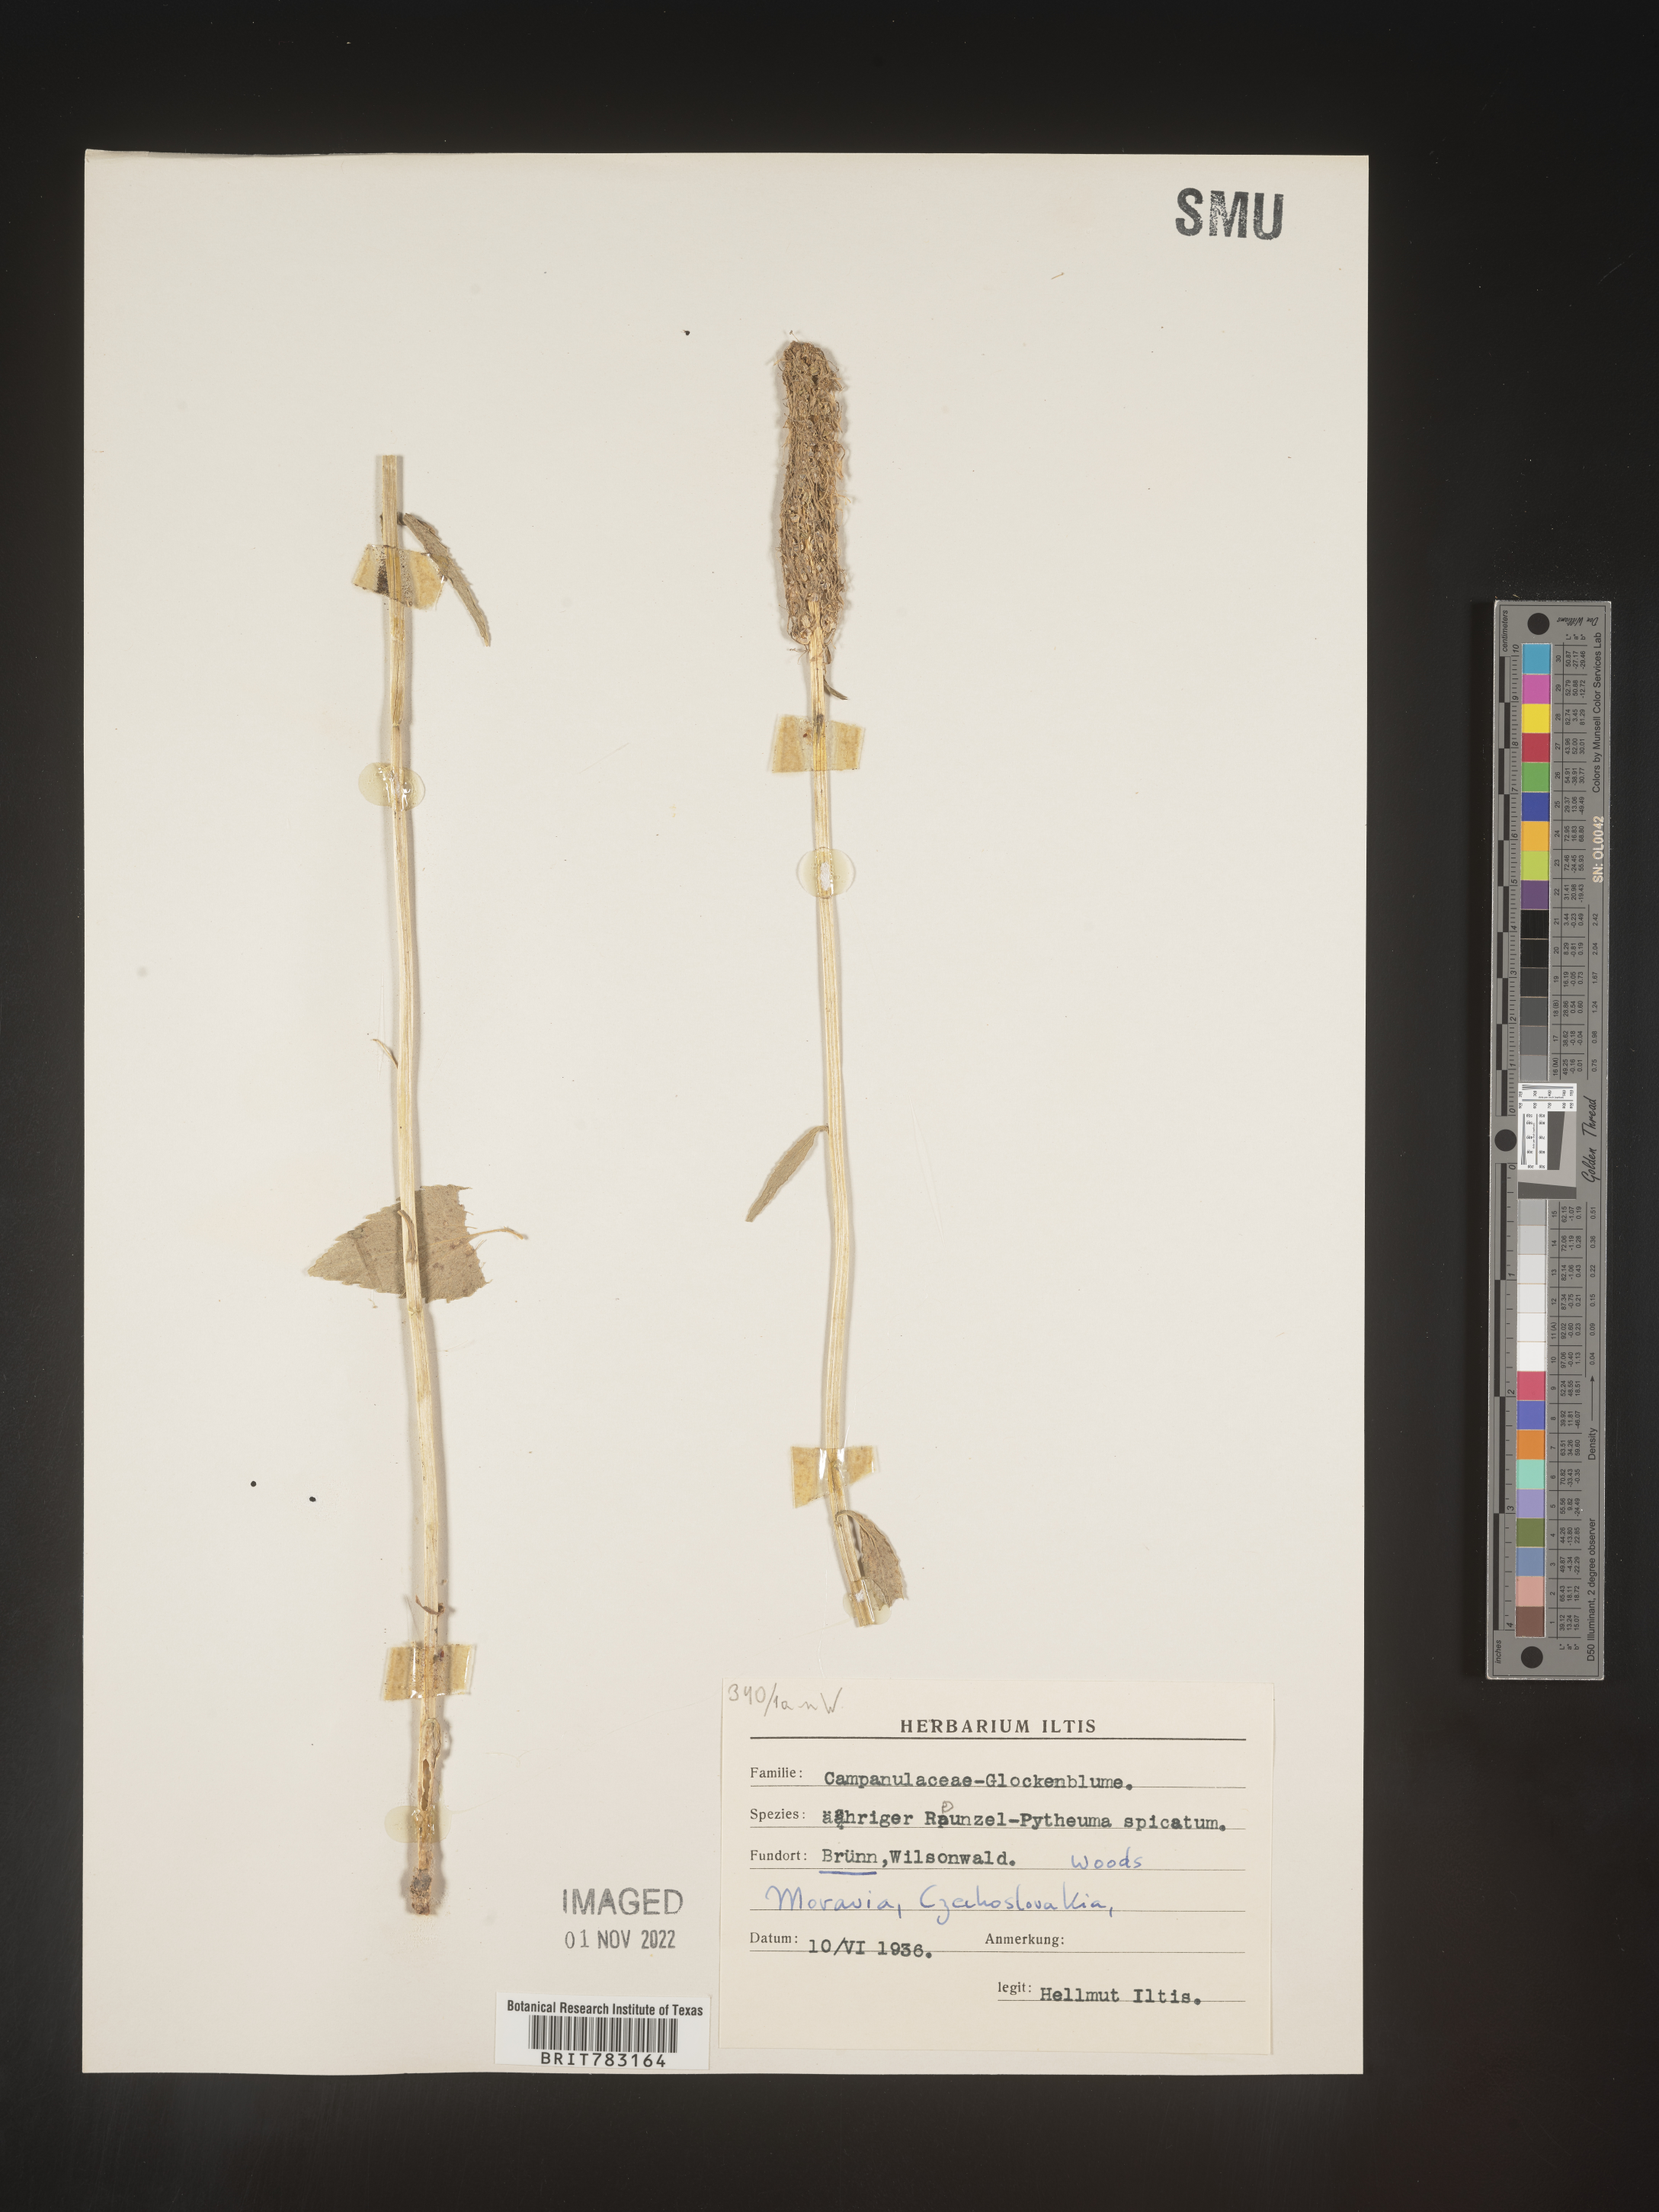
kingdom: Plantae
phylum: Tracheophyta
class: Magnoliopsida
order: Asterales
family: Campanulaceae
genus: Phyteuma
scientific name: Phyteuma
